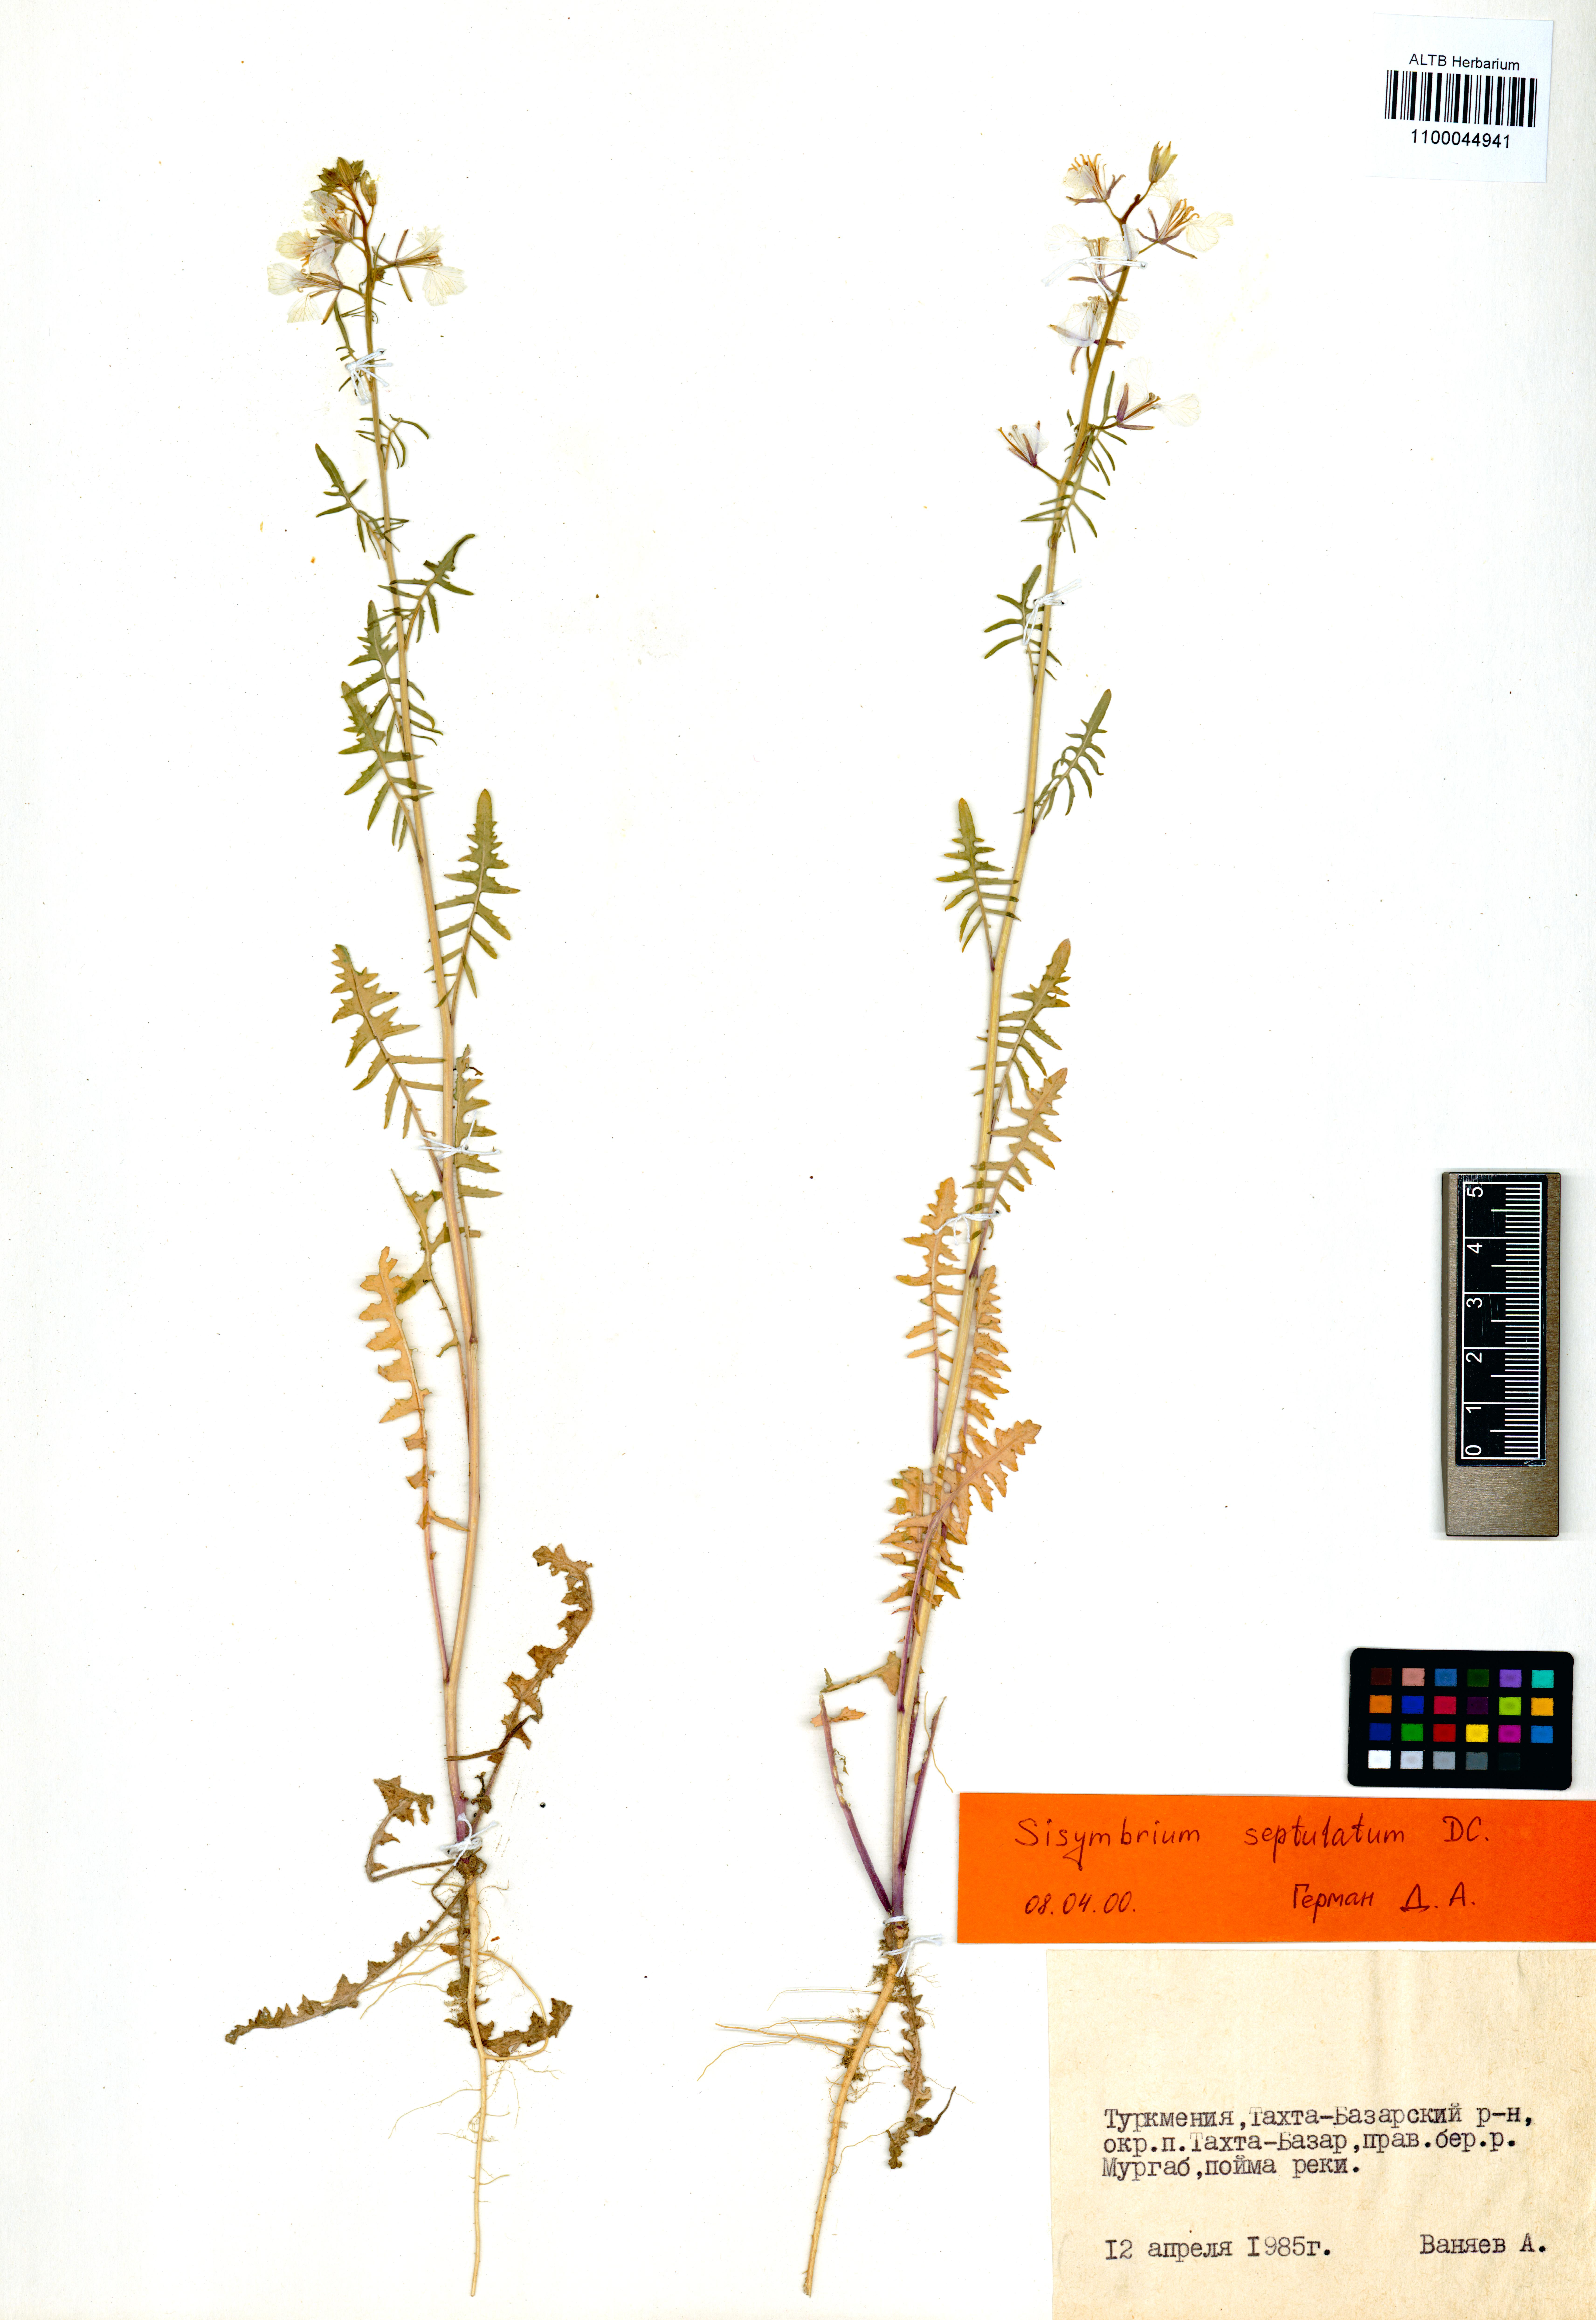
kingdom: Plantae
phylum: Tracheophyta
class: Magnoliopsida
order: Brassicales
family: Brassicaceae
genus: Sisymbrium
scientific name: Sisymbrium septulatum
